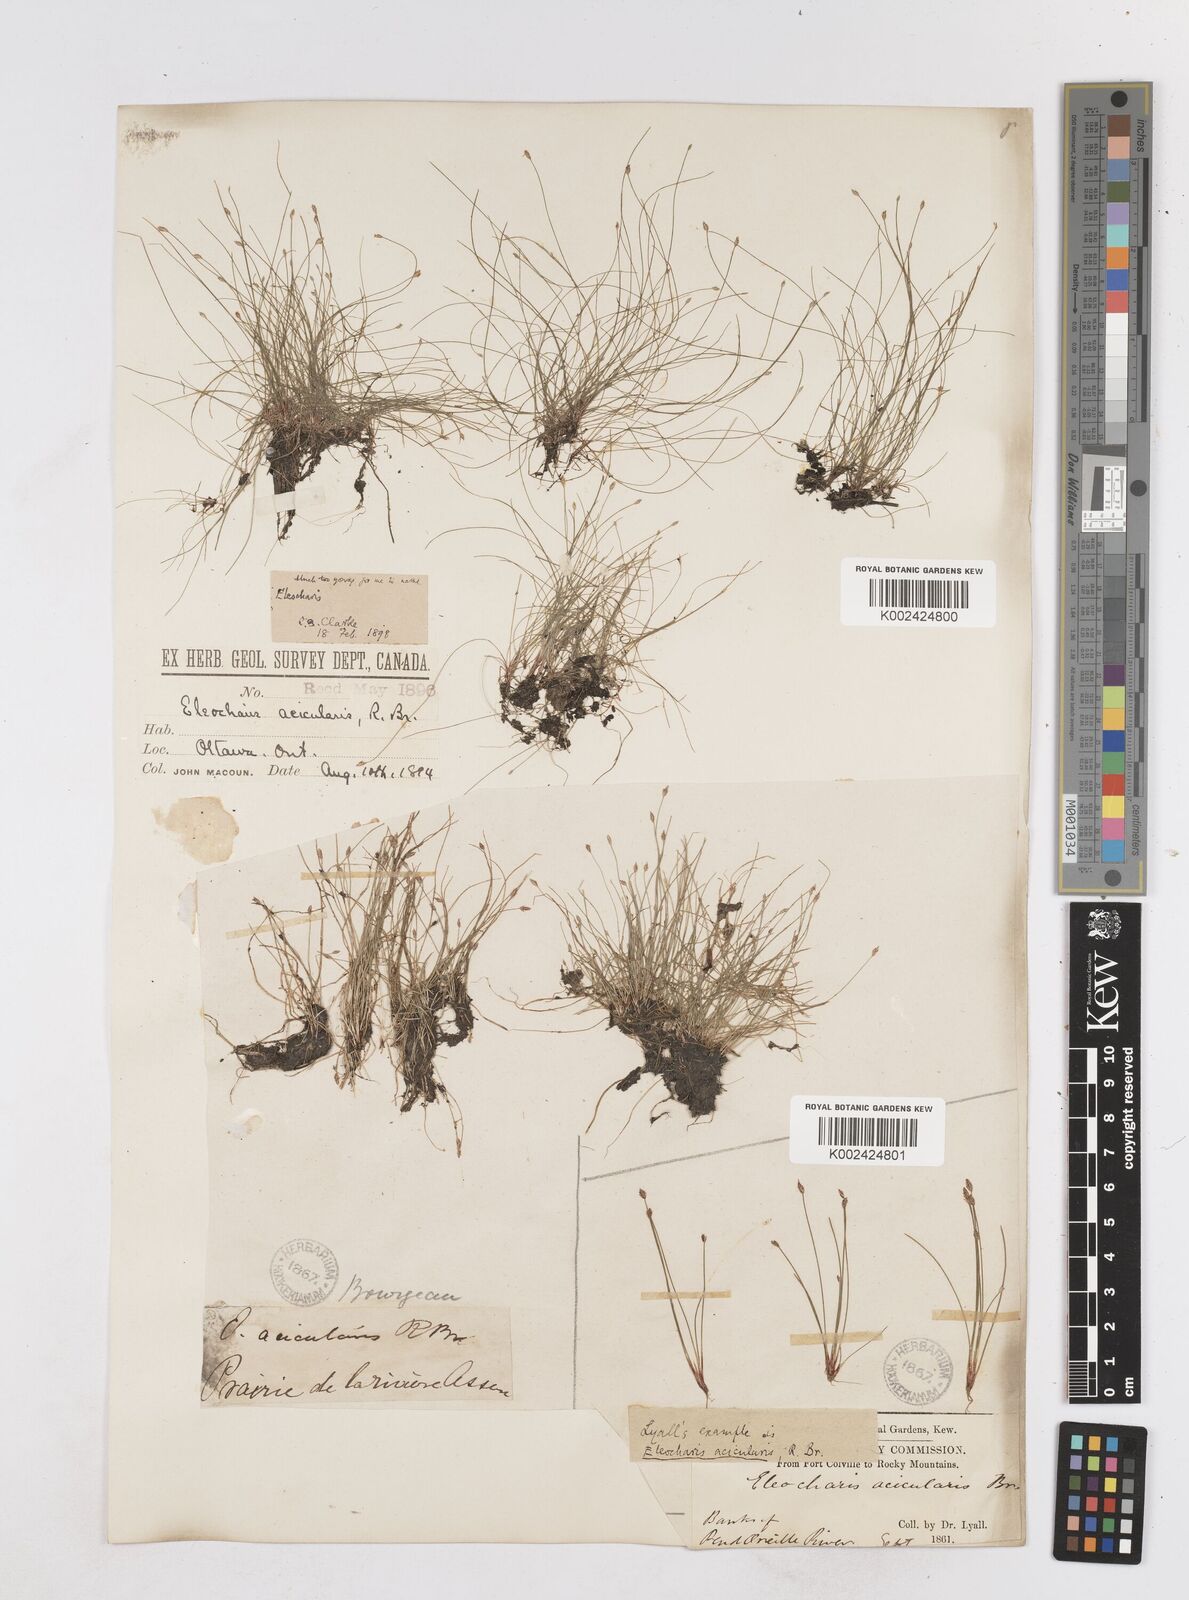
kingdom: Plantae
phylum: Tracheophyta
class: Liliopsida
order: Poales
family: Cyperaceae
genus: Eleocharis
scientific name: Eleocharis acicularis
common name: Needle spike-rush
